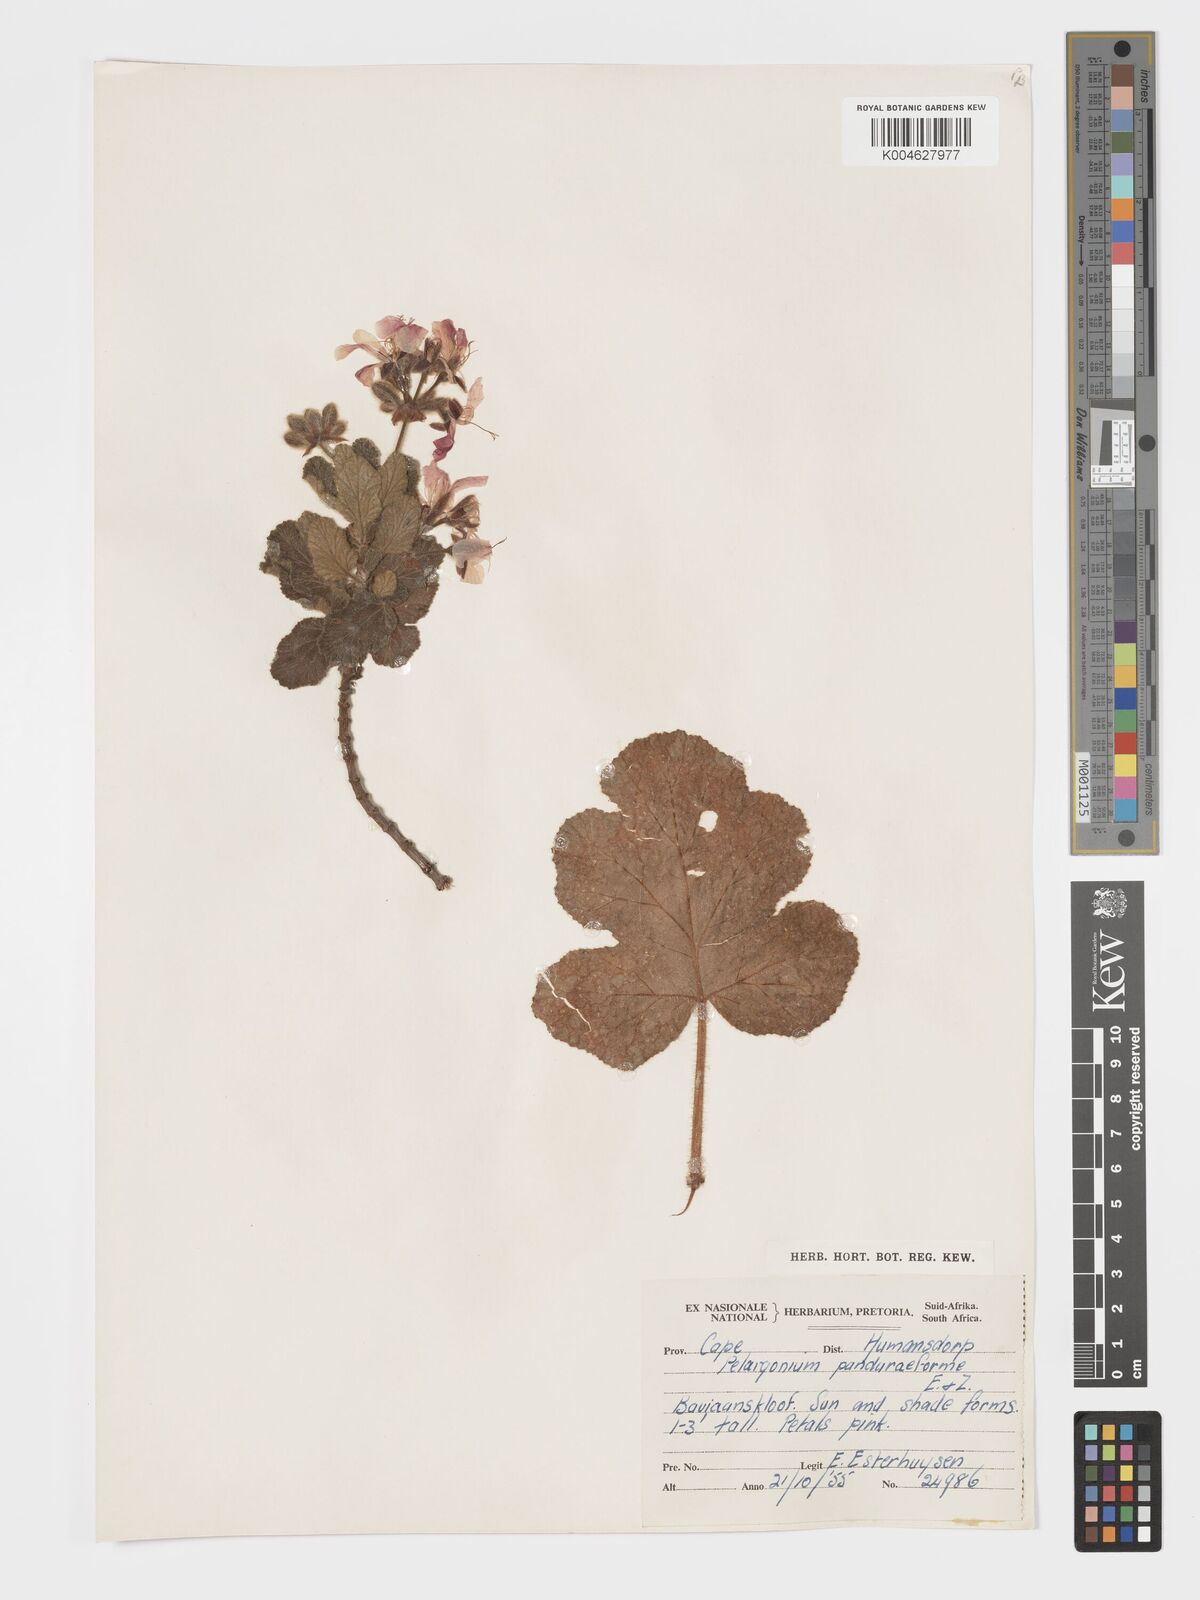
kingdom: Plantae
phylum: Tracheophyta
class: Magnoliopsida
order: Geraniales
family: Geraniaceae
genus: Pelargonium
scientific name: Pelargonium panduriforme
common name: Oakleaf garden geranium
